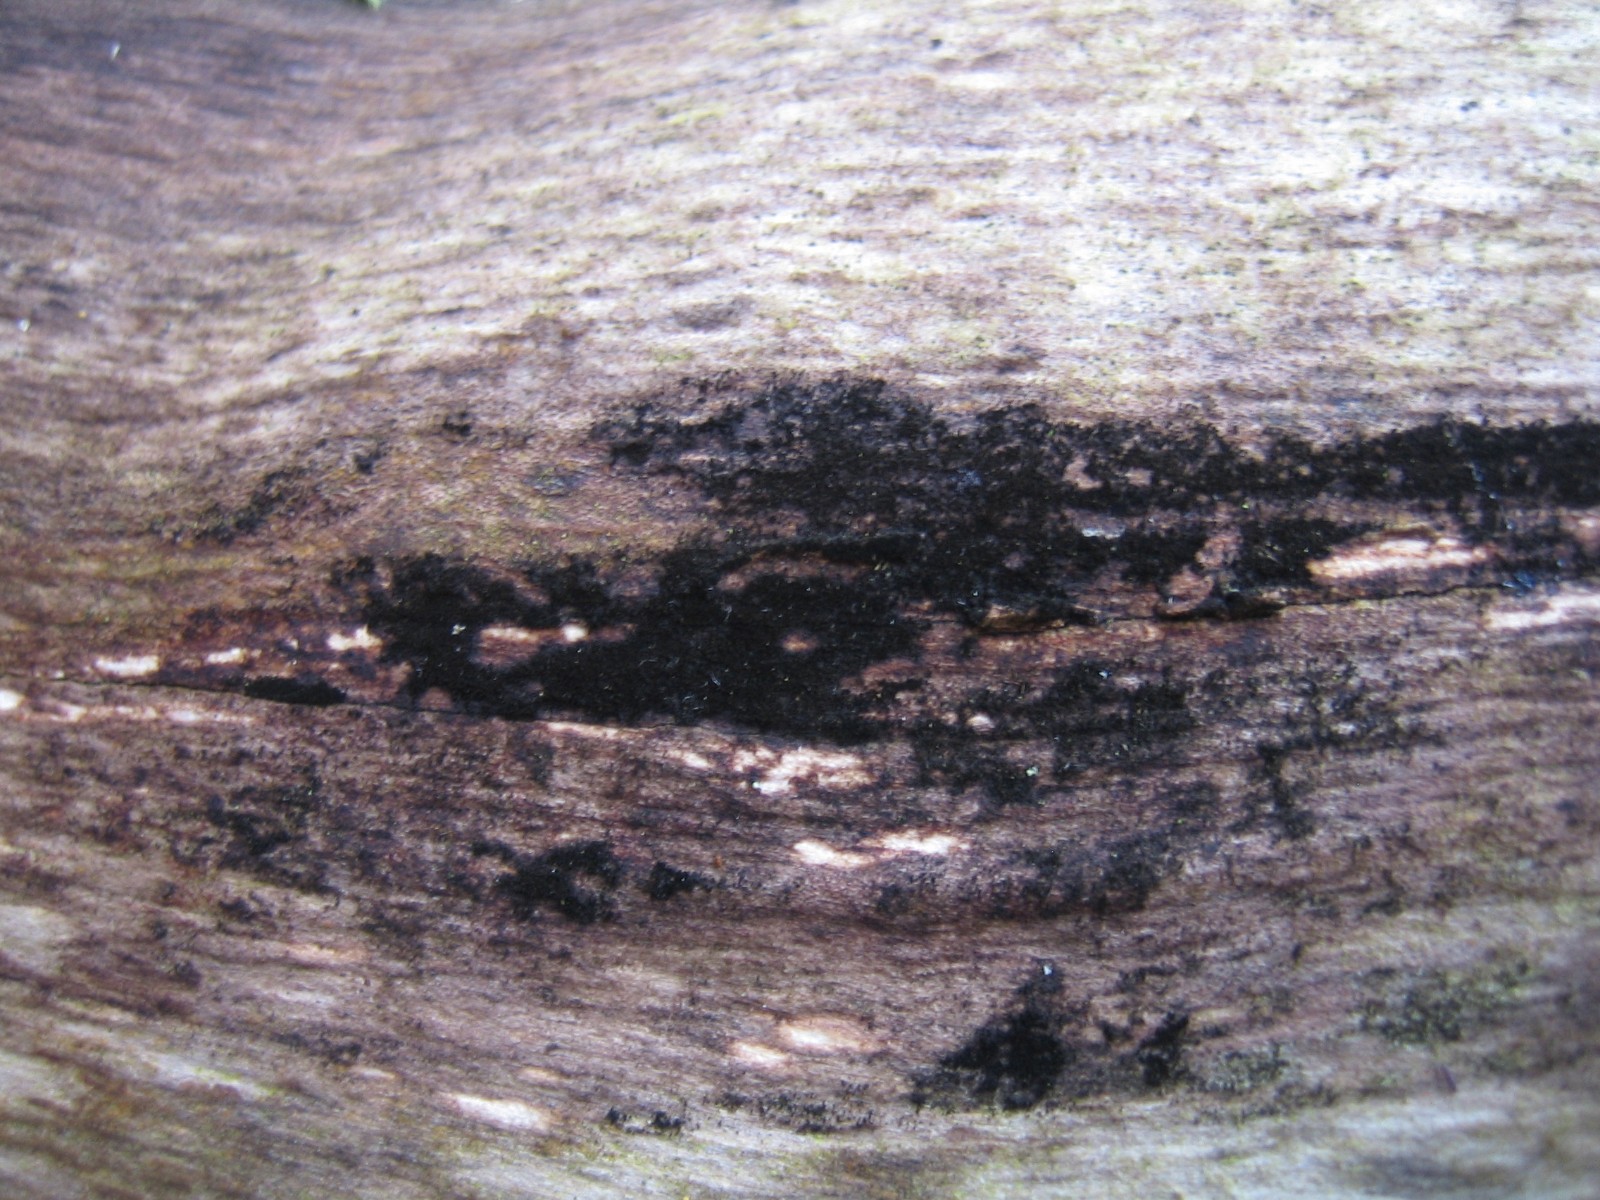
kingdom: Fungi
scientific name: Fungi
